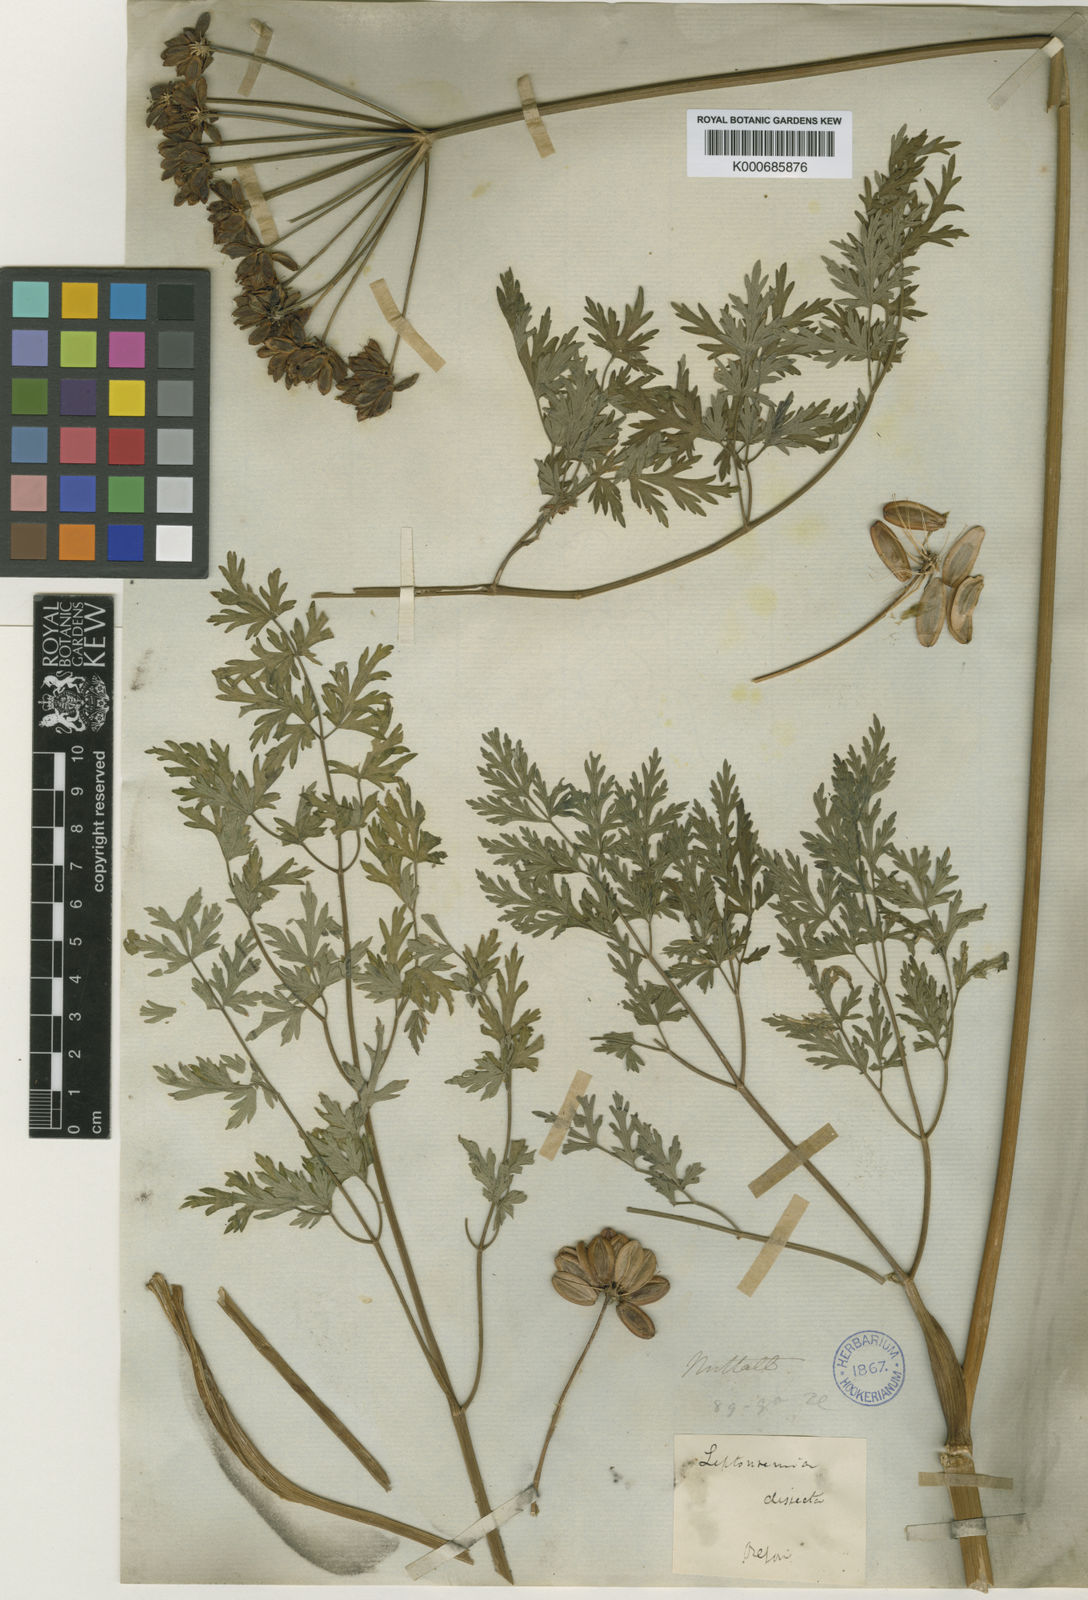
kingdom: Plantae
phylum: Tracheophyta
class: Magnoliopsida
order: Apiales
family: Apiaceae
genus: Lomatium
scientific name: Lomatium dissectum
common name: Lomatium
